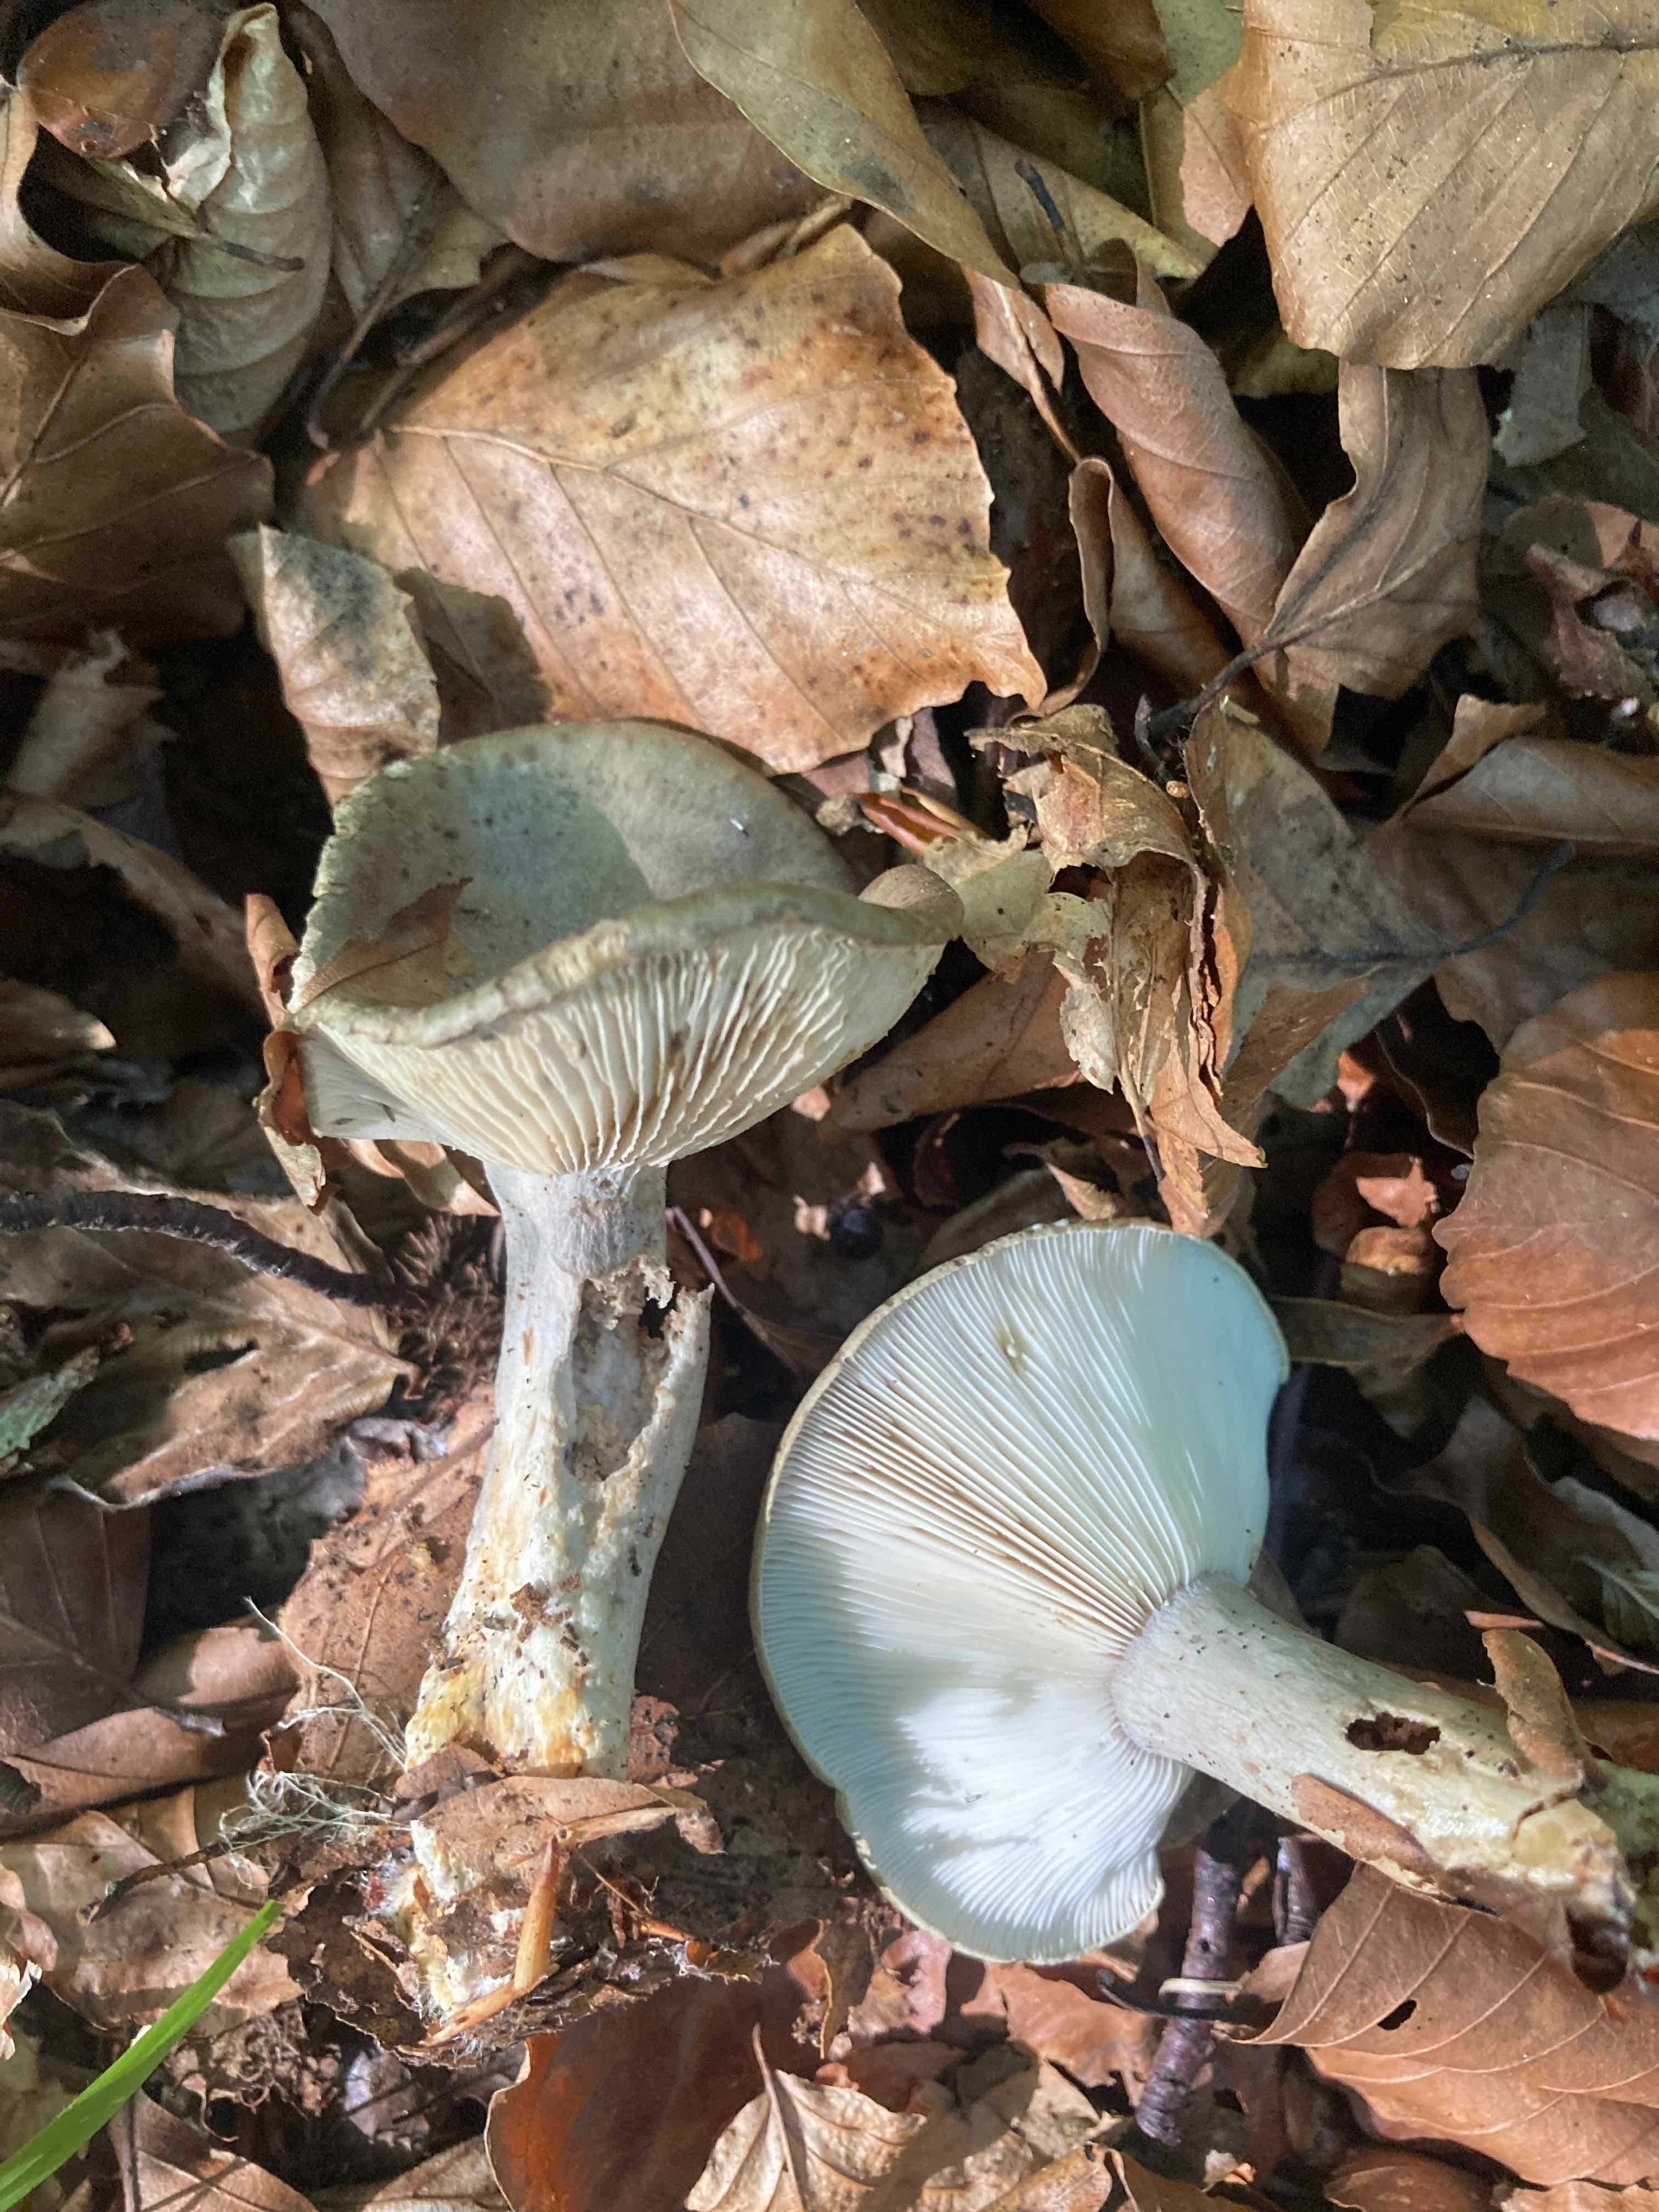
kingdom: Fungi
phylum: Basidiomycota
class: Agaricomycetes
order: Russulales
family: Russulaceae
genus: Lactarius
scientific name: Lactarius blennius
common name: dråbeplettet mælkehat
